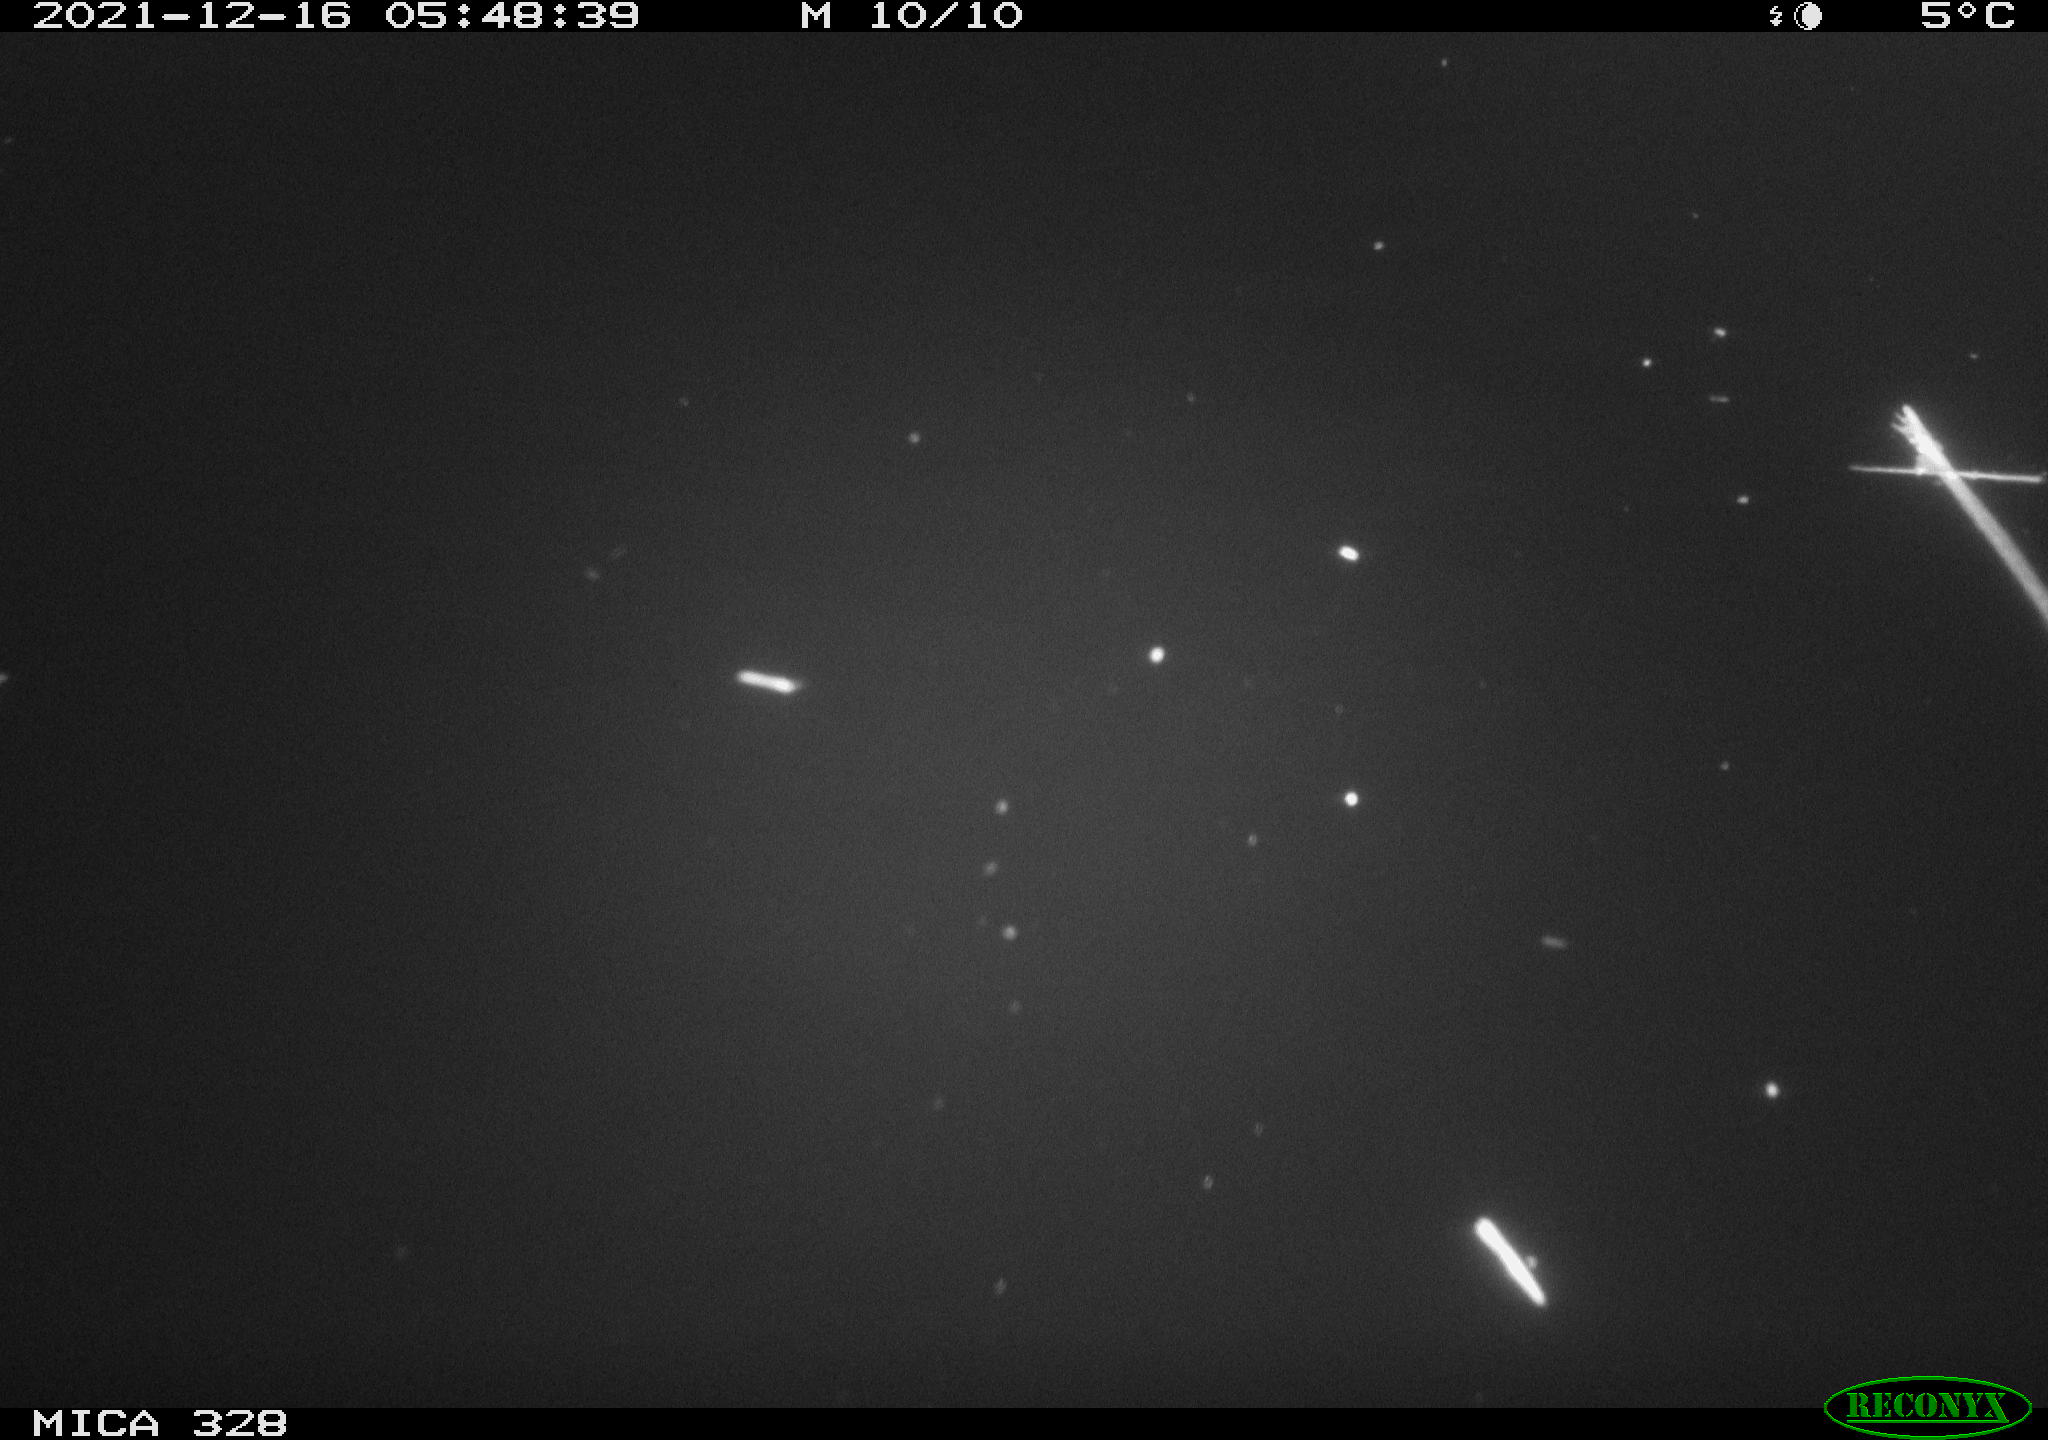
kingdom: Animalia
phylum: Chordata
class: Mammalia
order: Rodentia
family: Cricetidae
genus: Ondatra
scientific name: Ondatra zibethicus
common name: Muskrat
